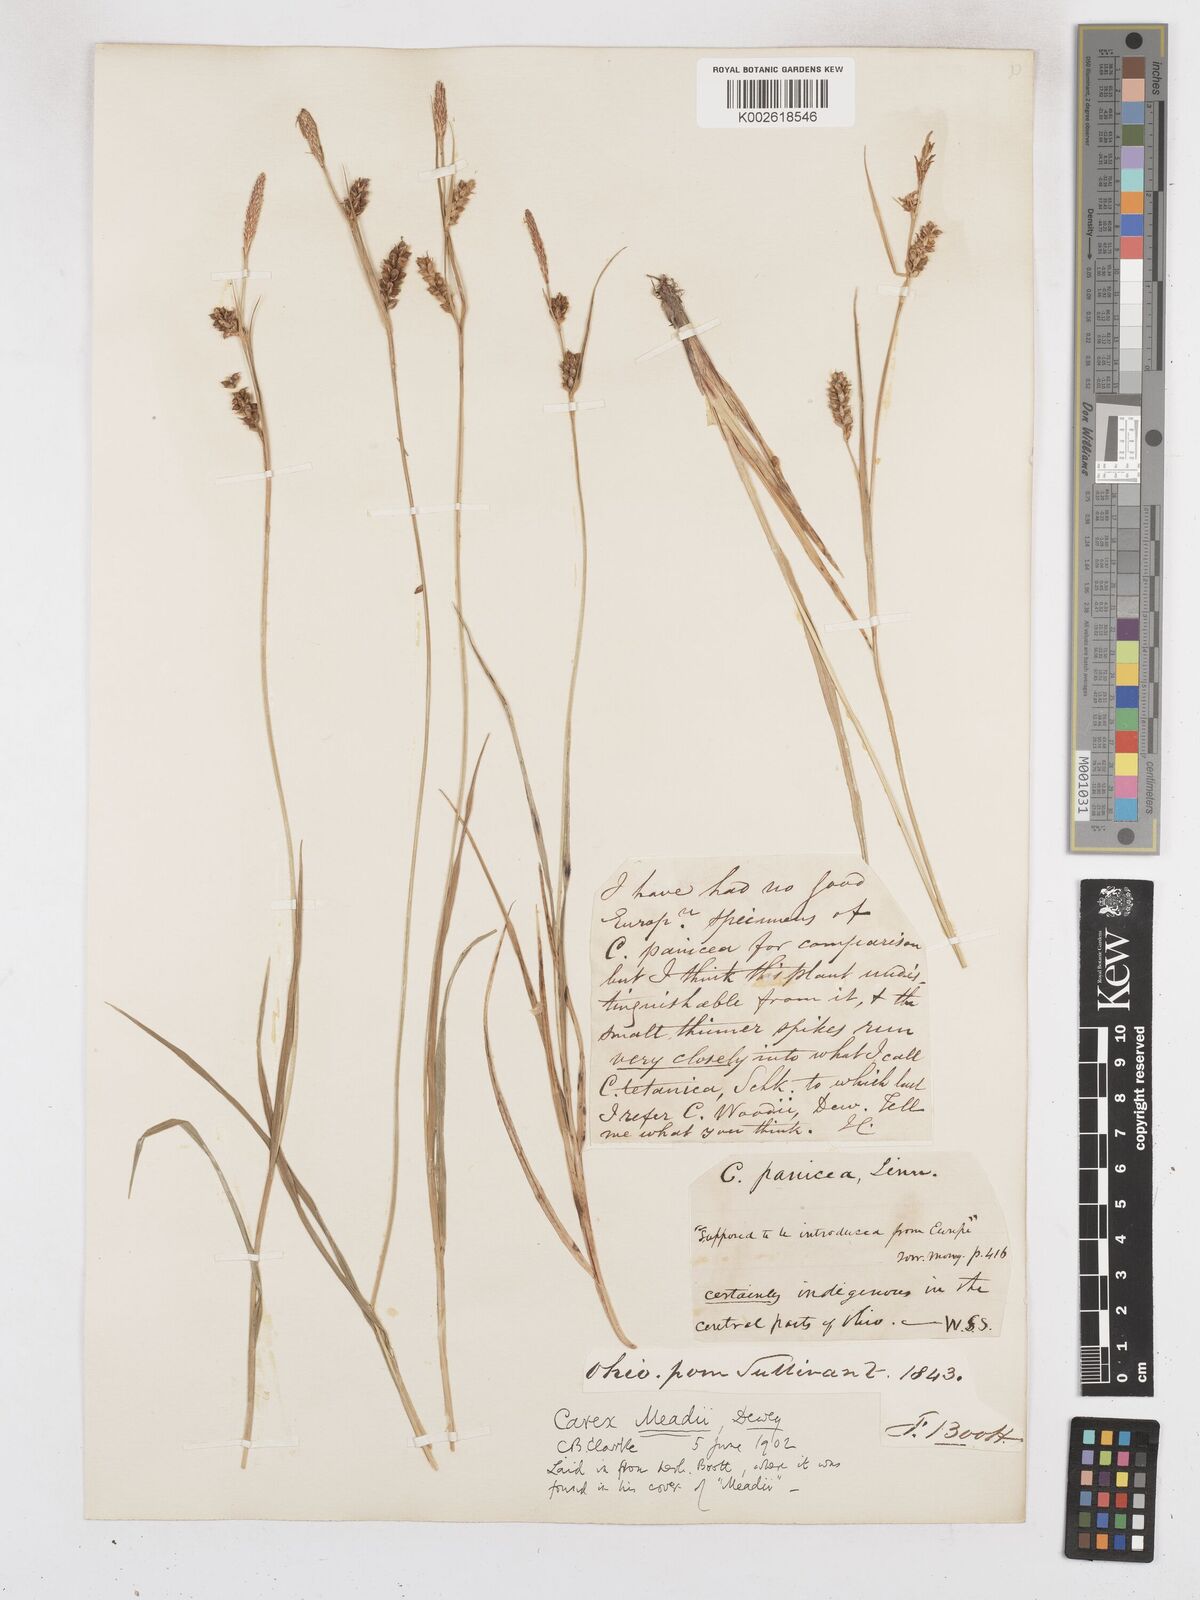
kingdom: Plantae
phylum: Tracheophyta
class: Liliopsida
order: Poales
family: Cyperaceae
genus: Carex
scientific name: Carex meadii
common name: Mead's sedge
